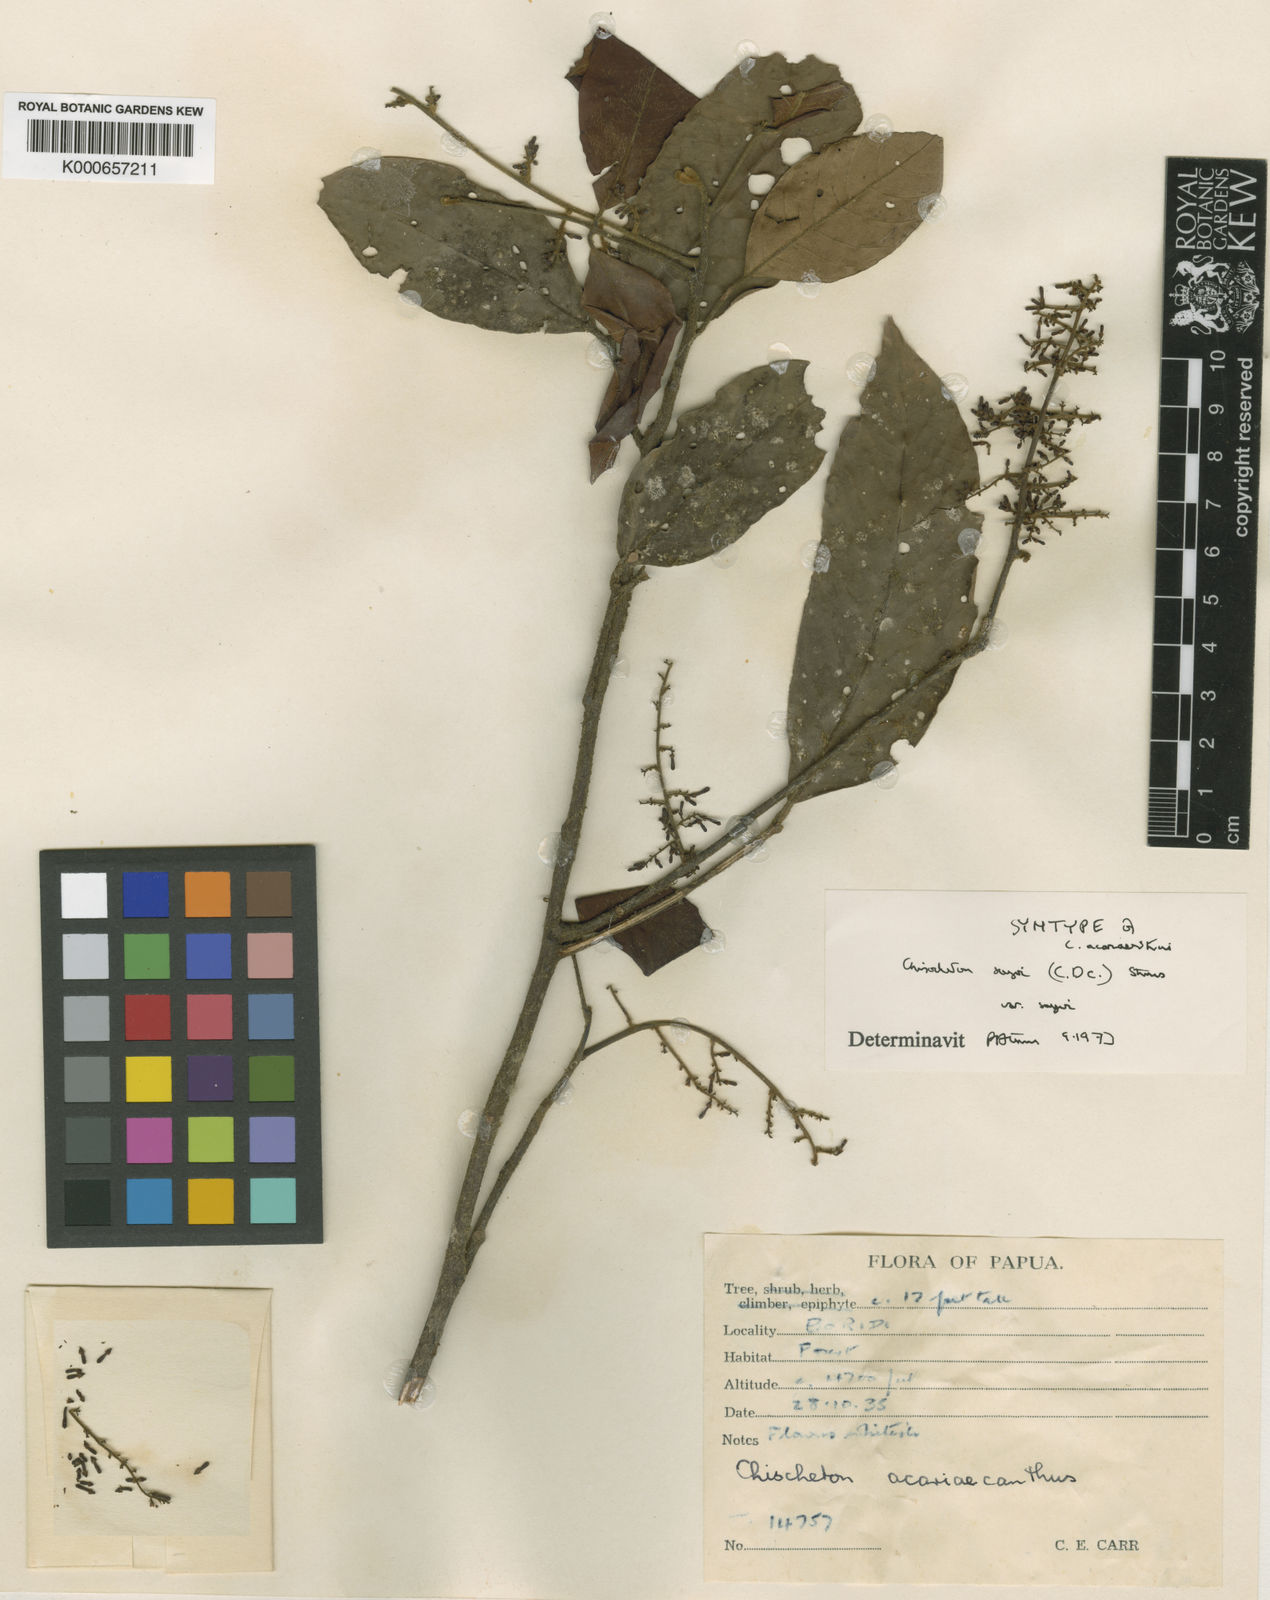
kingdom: Plantae
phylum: Tracheophyta
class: Magnoliopsida
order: Sapindales
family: Meliaceae
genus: Chisocheton
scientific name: Chisocheton sayeri
